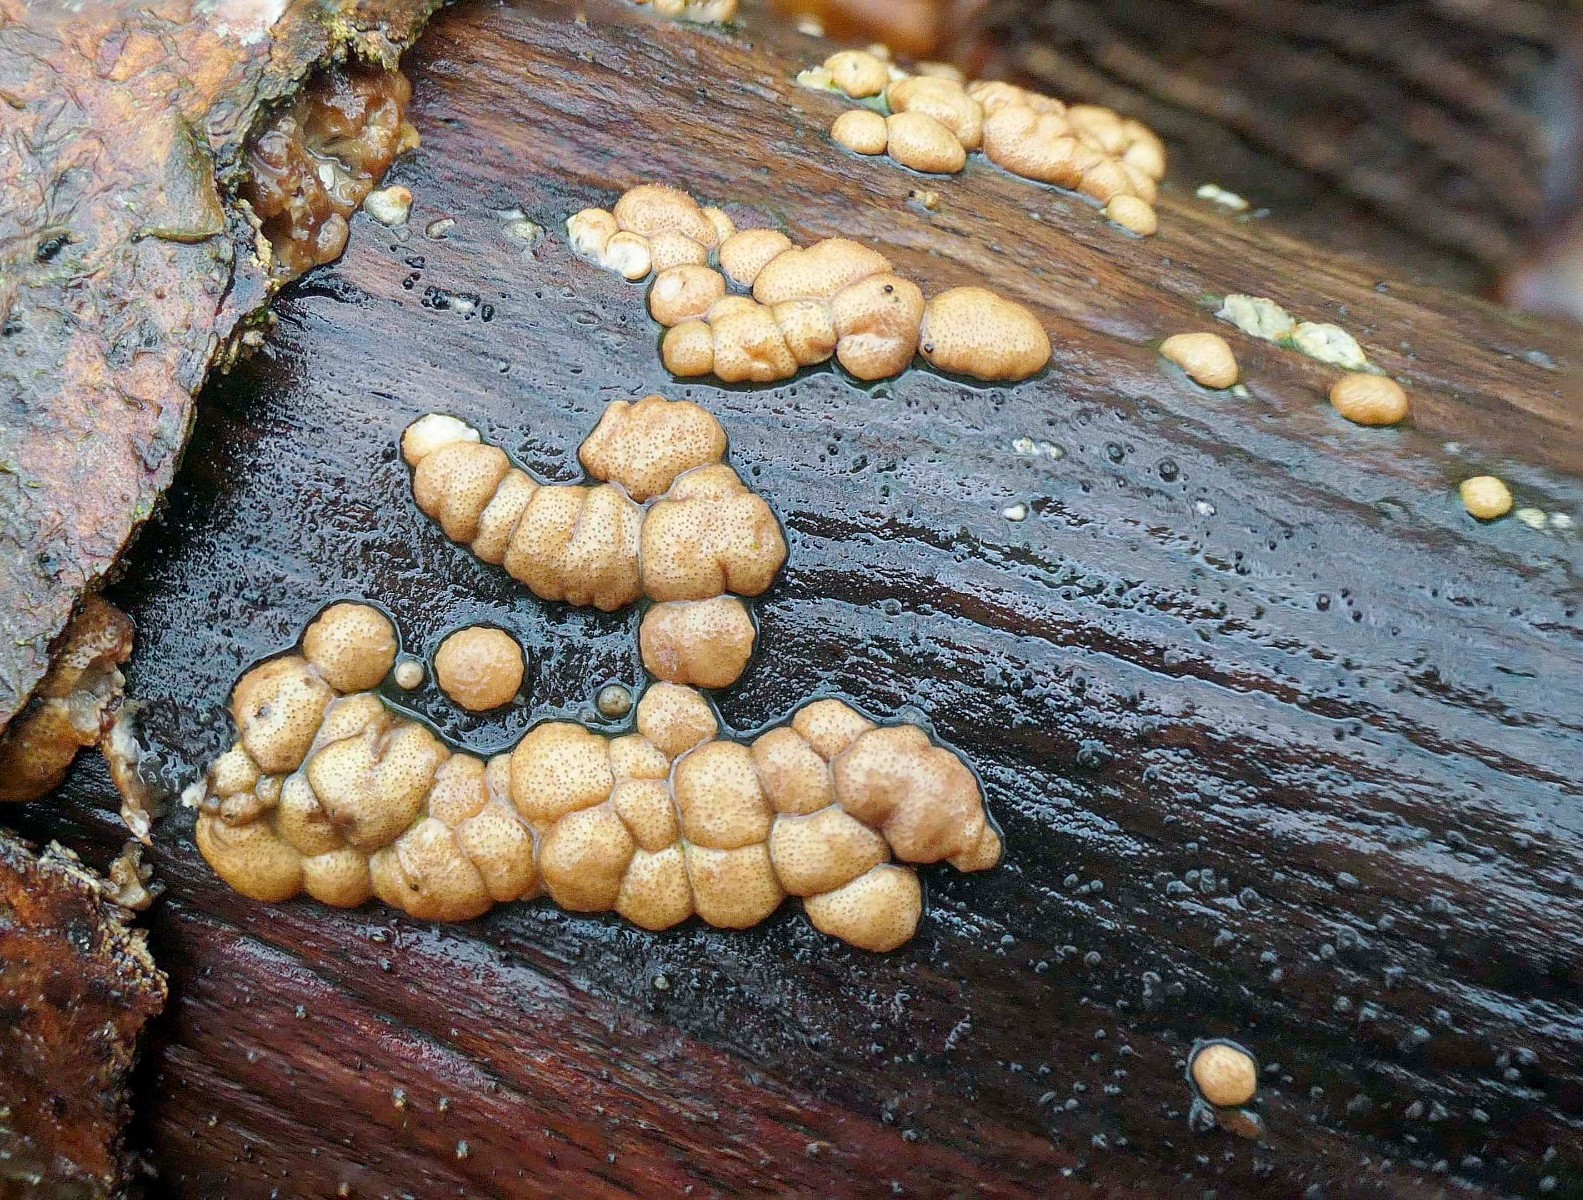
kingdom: Fungi
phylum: Ascomycota
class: Sordariomycetes
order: Hypocreales
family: Hypocreaceae
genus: Trichoderma
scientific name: Trichoderma europaeum
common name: rosabrun kødkerne
